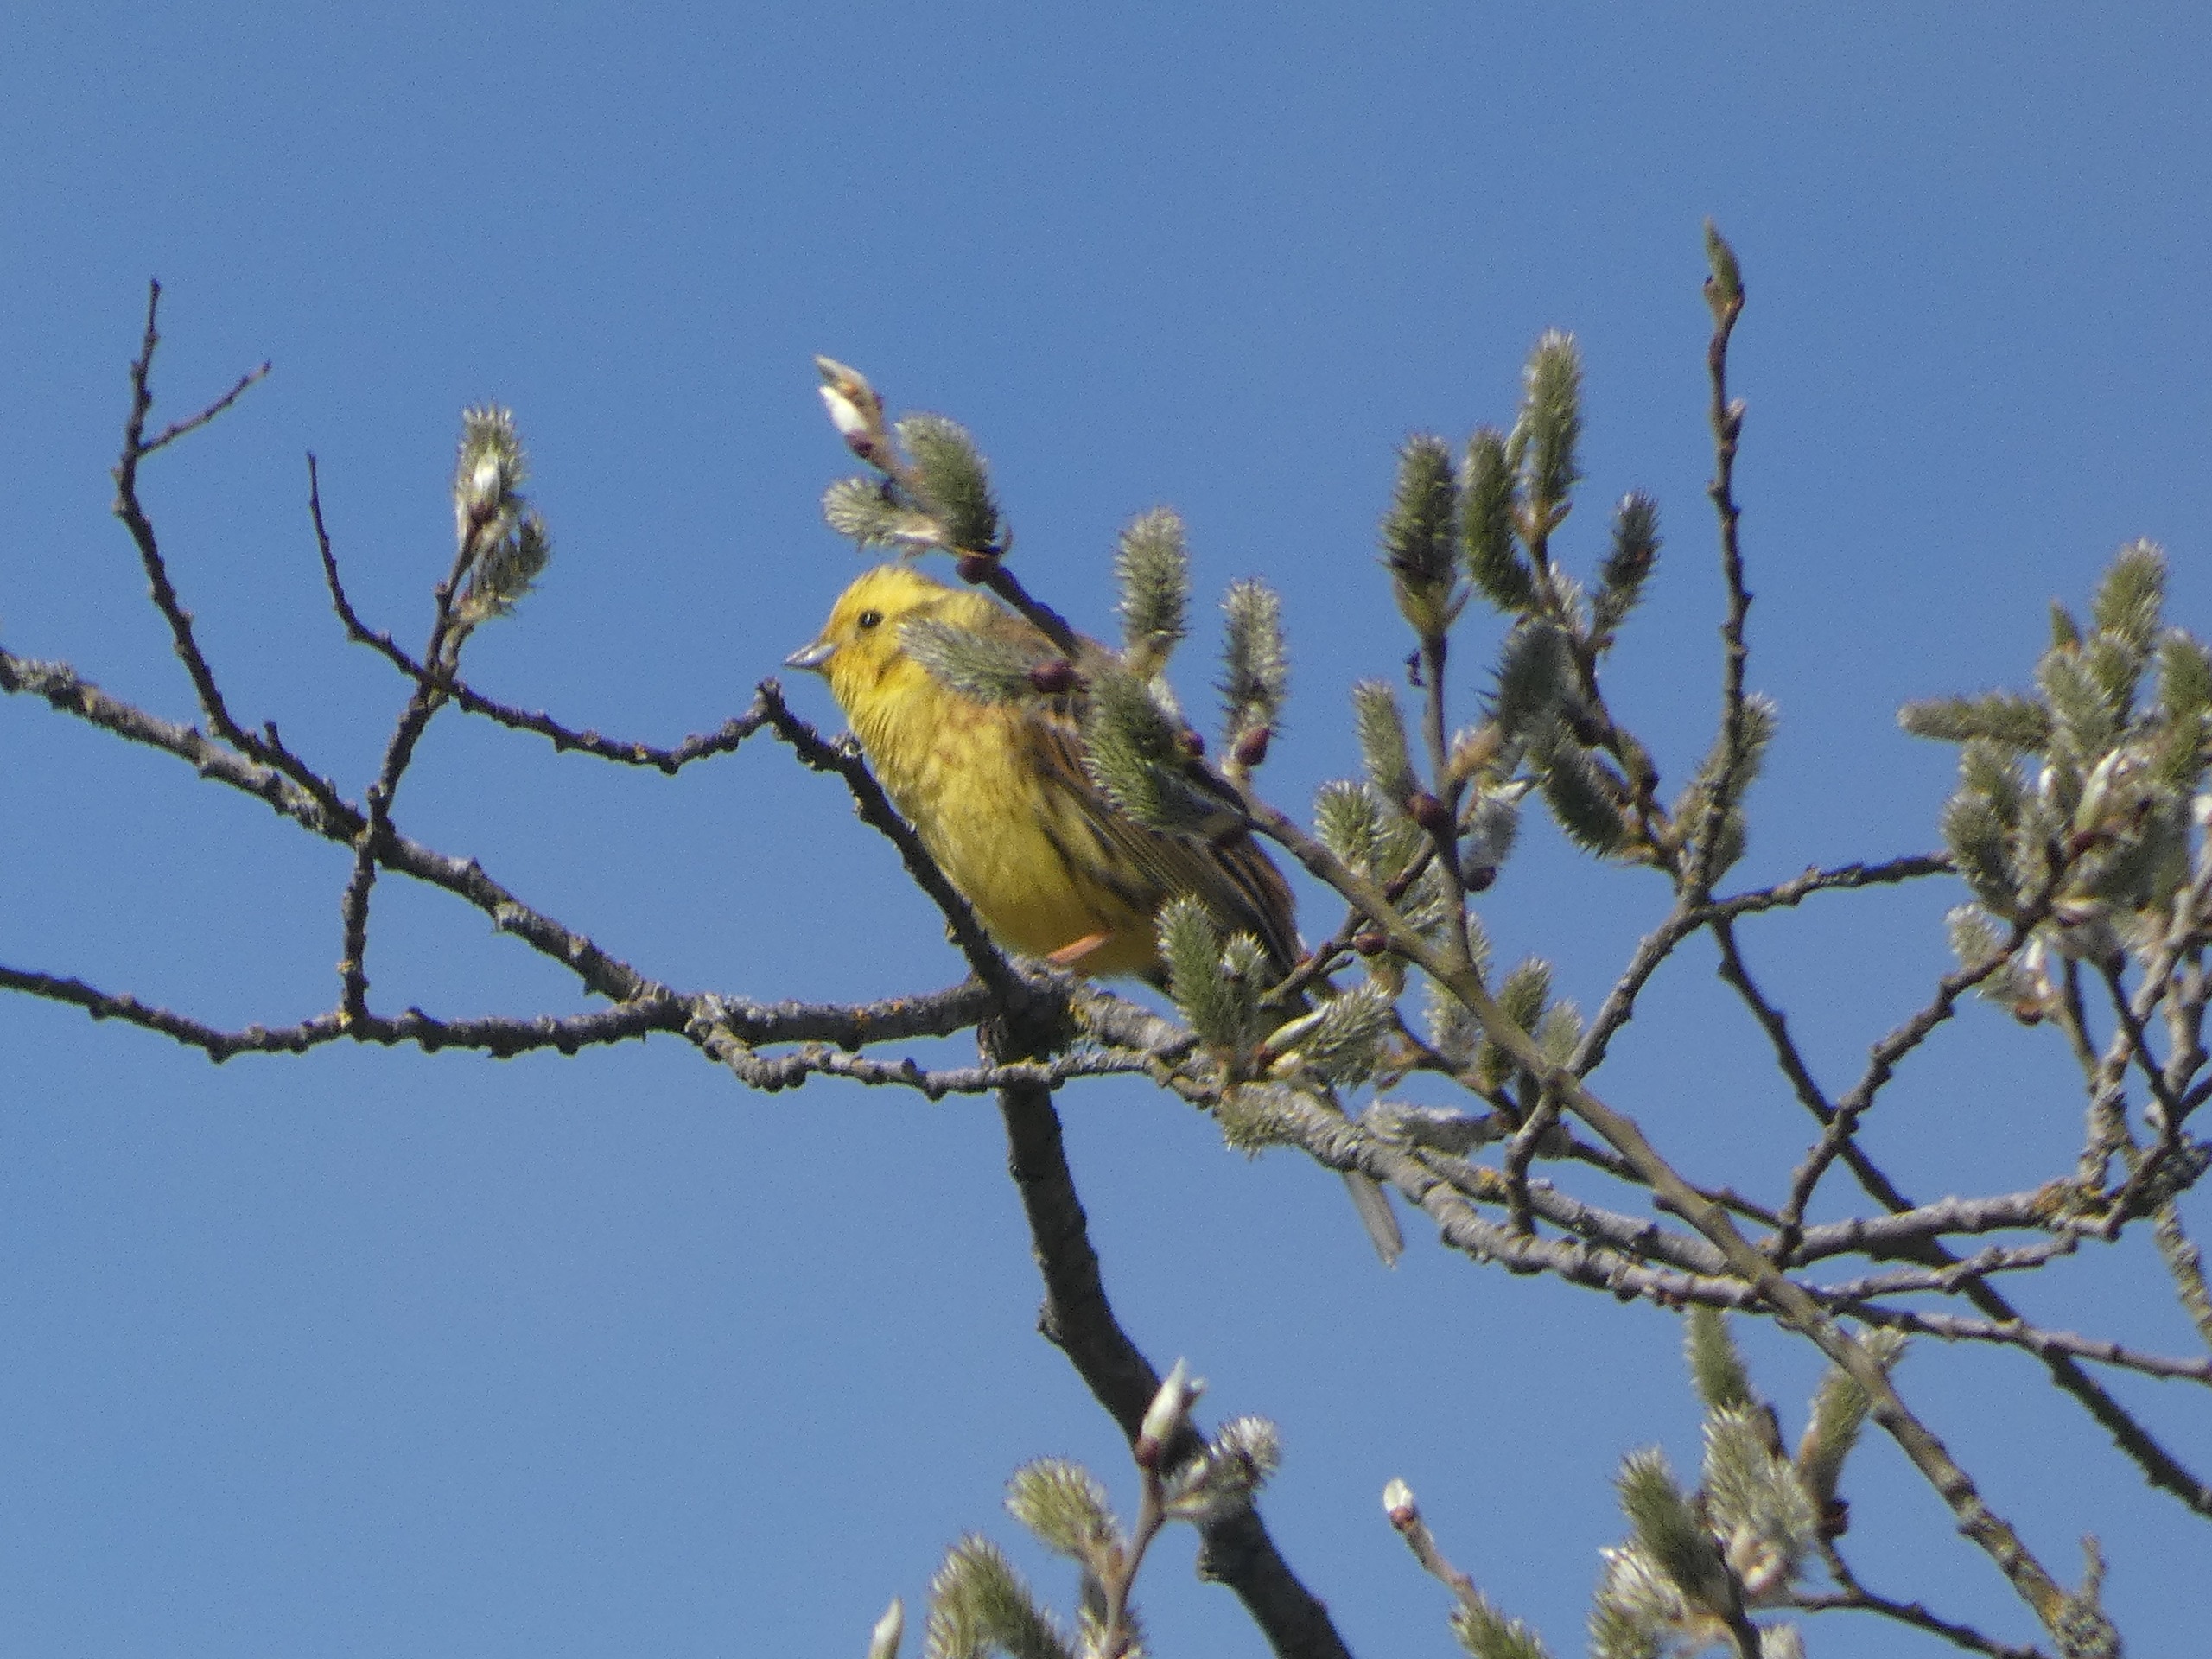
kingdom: Animalia
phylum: Chordata
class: Aves
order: Passeriformes
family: Emberizidae
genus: Emberiza
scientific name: Emberiza citrinella
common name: Gulspurv
